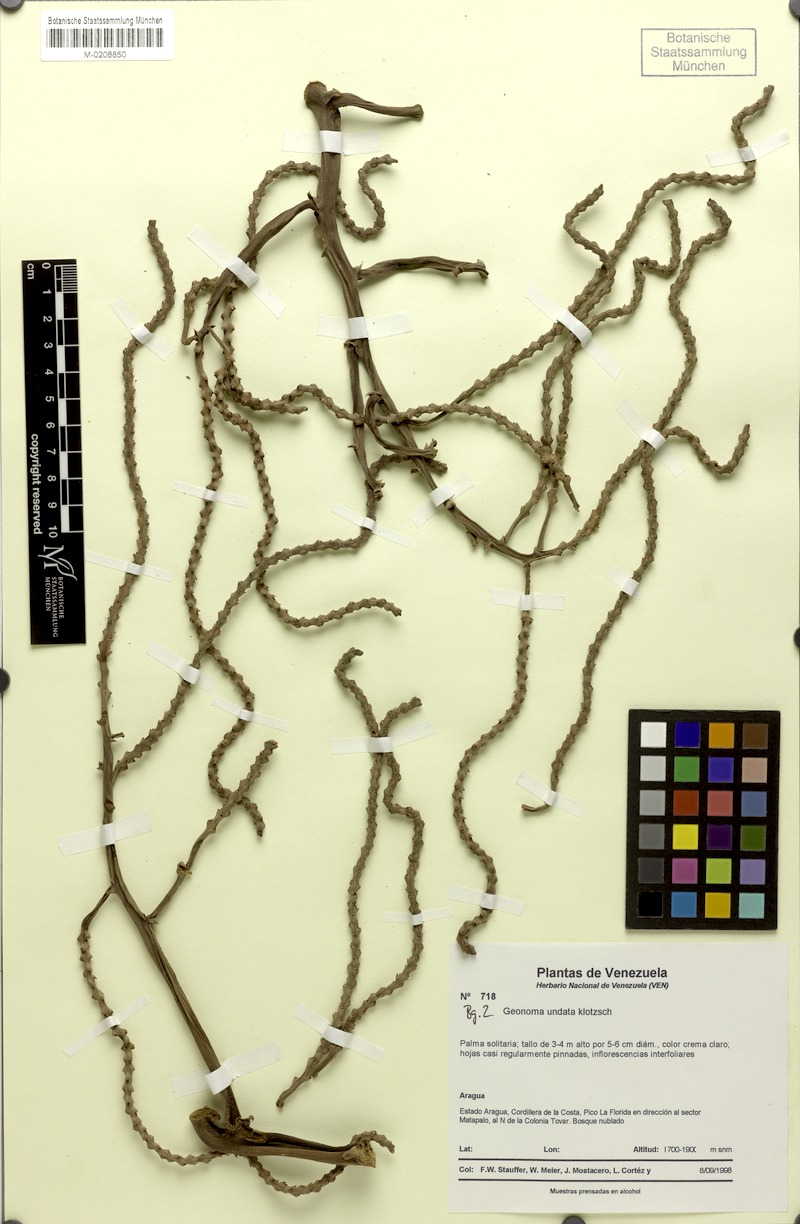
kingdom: Plantae
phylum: Tracheophyta
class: Liliopsida
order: Arecales
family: Arecaceae
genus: Geonoma
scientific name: Geonoma undata
